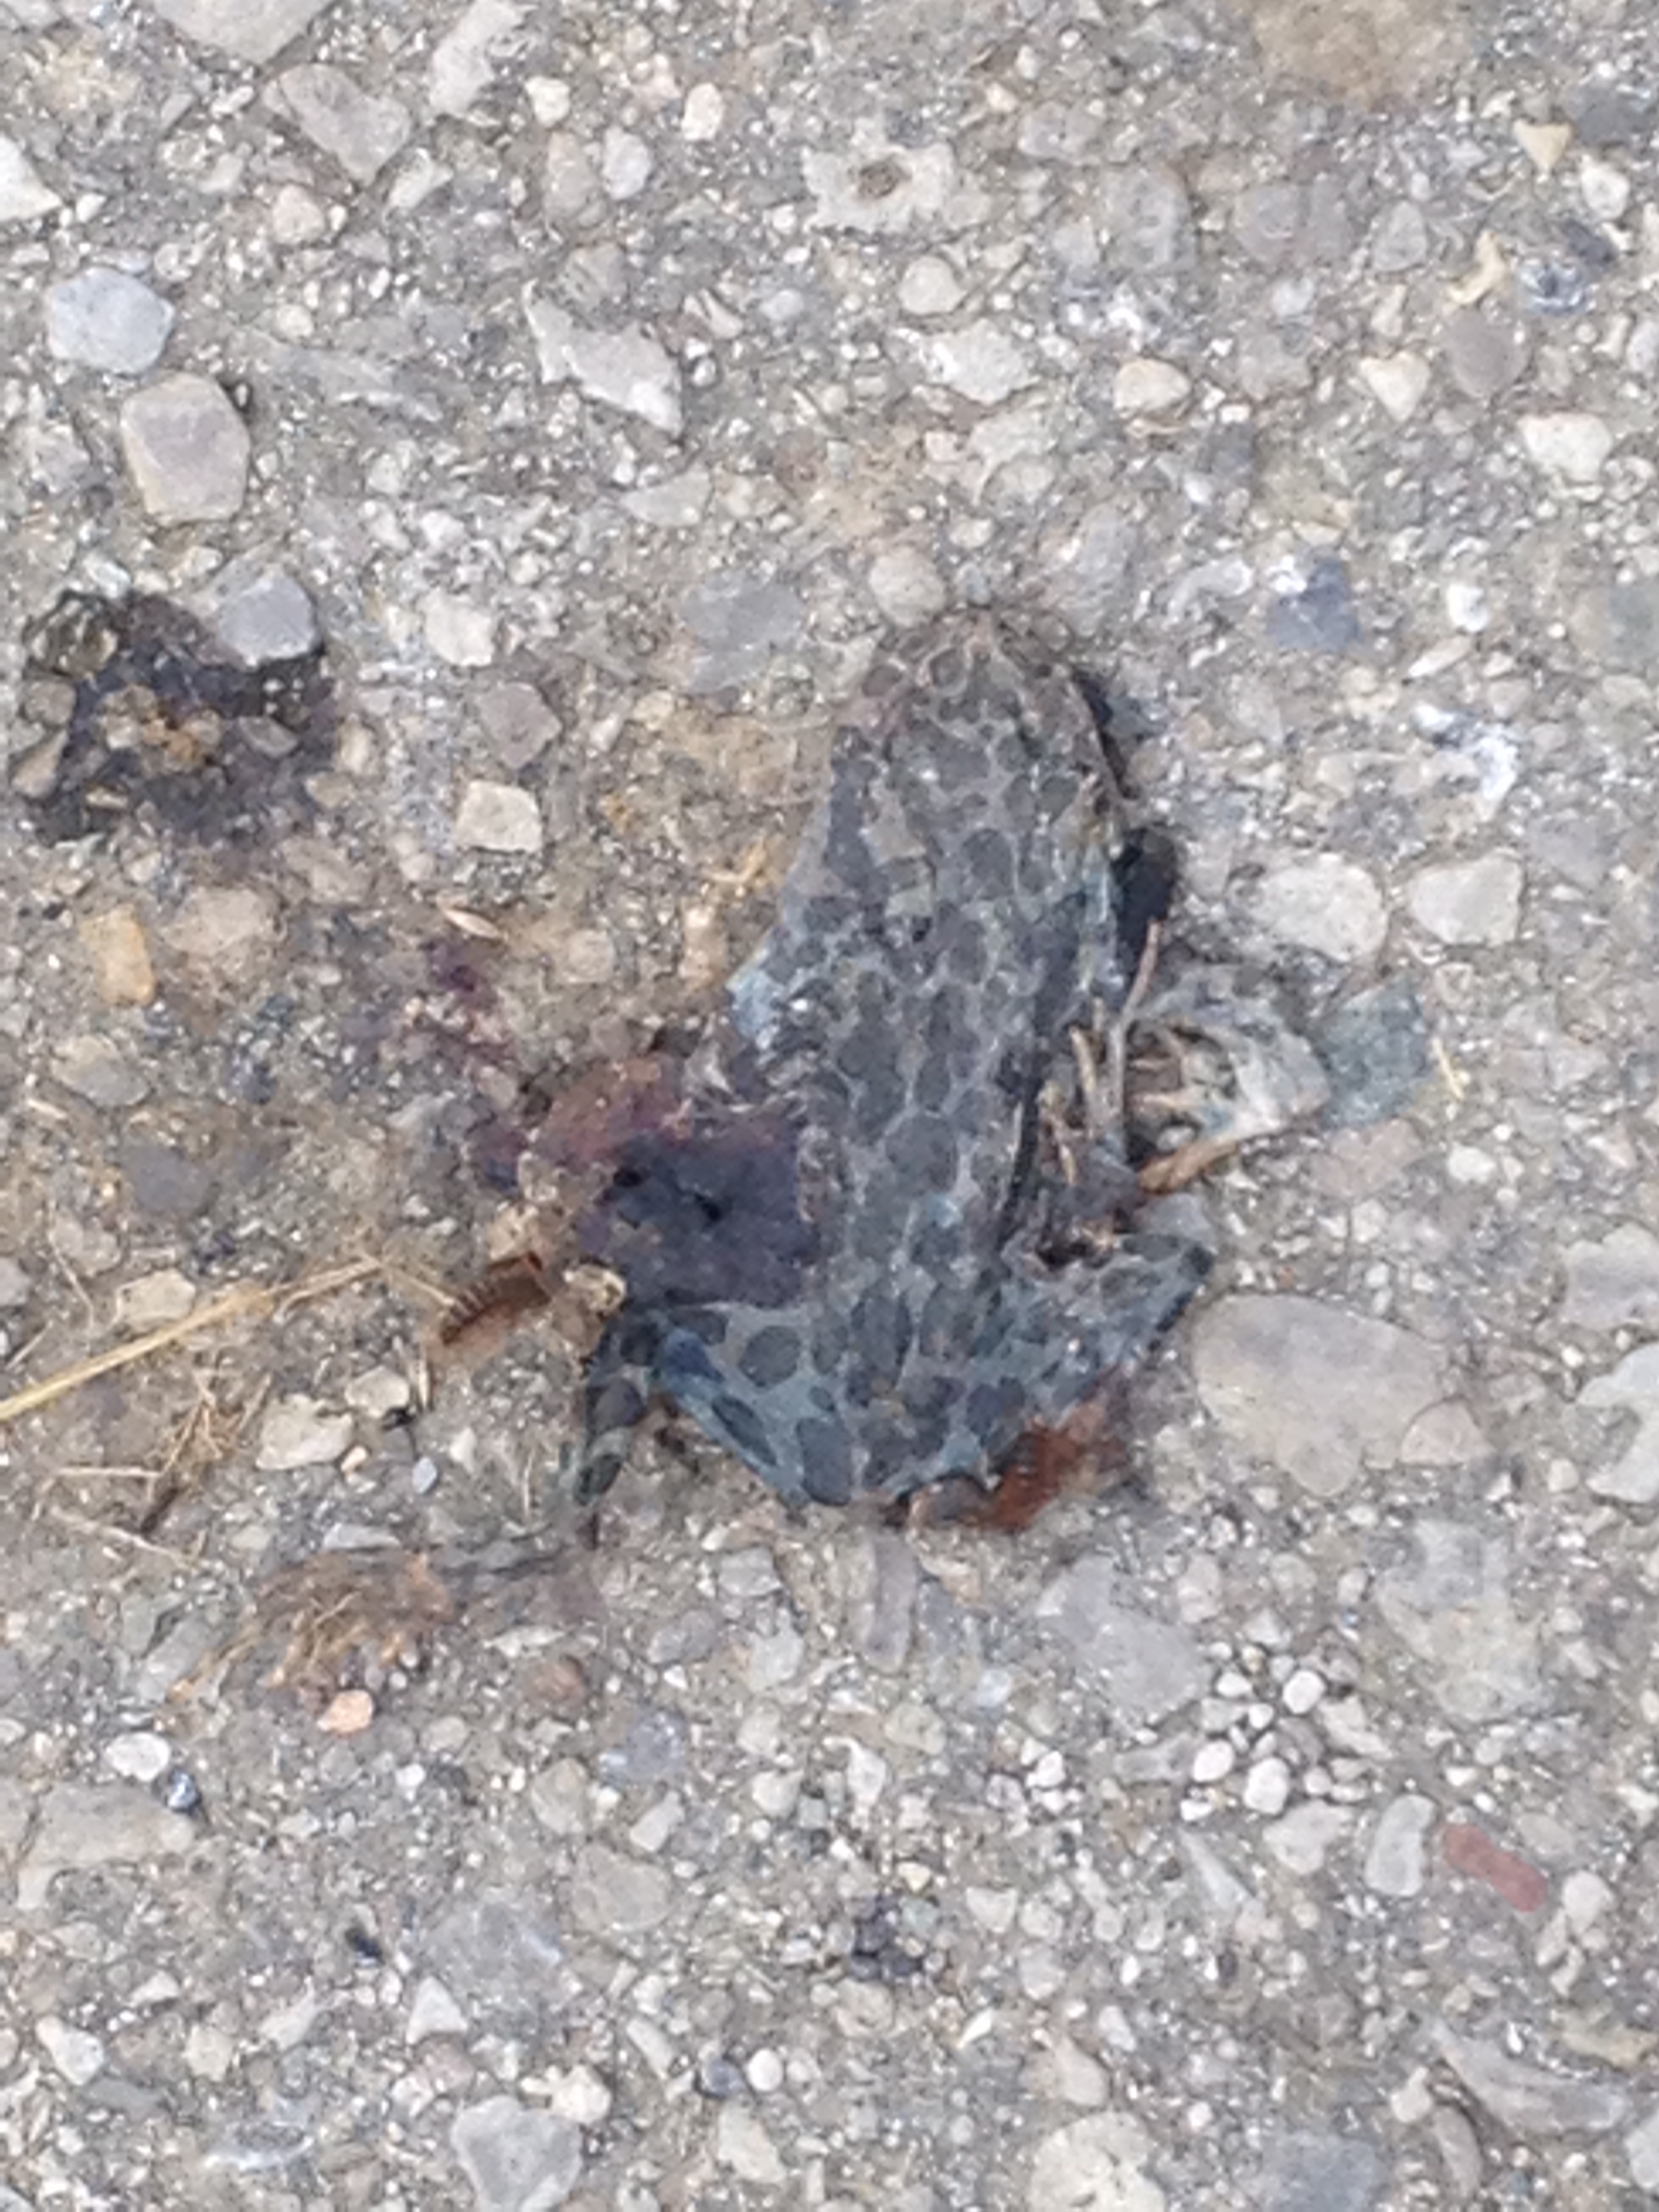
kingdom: Animalia
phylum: Chordata
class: Amphibia
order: Anura
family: Bufonidae
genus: Bufotes
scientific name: Bufotes viridis
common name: European green toad
